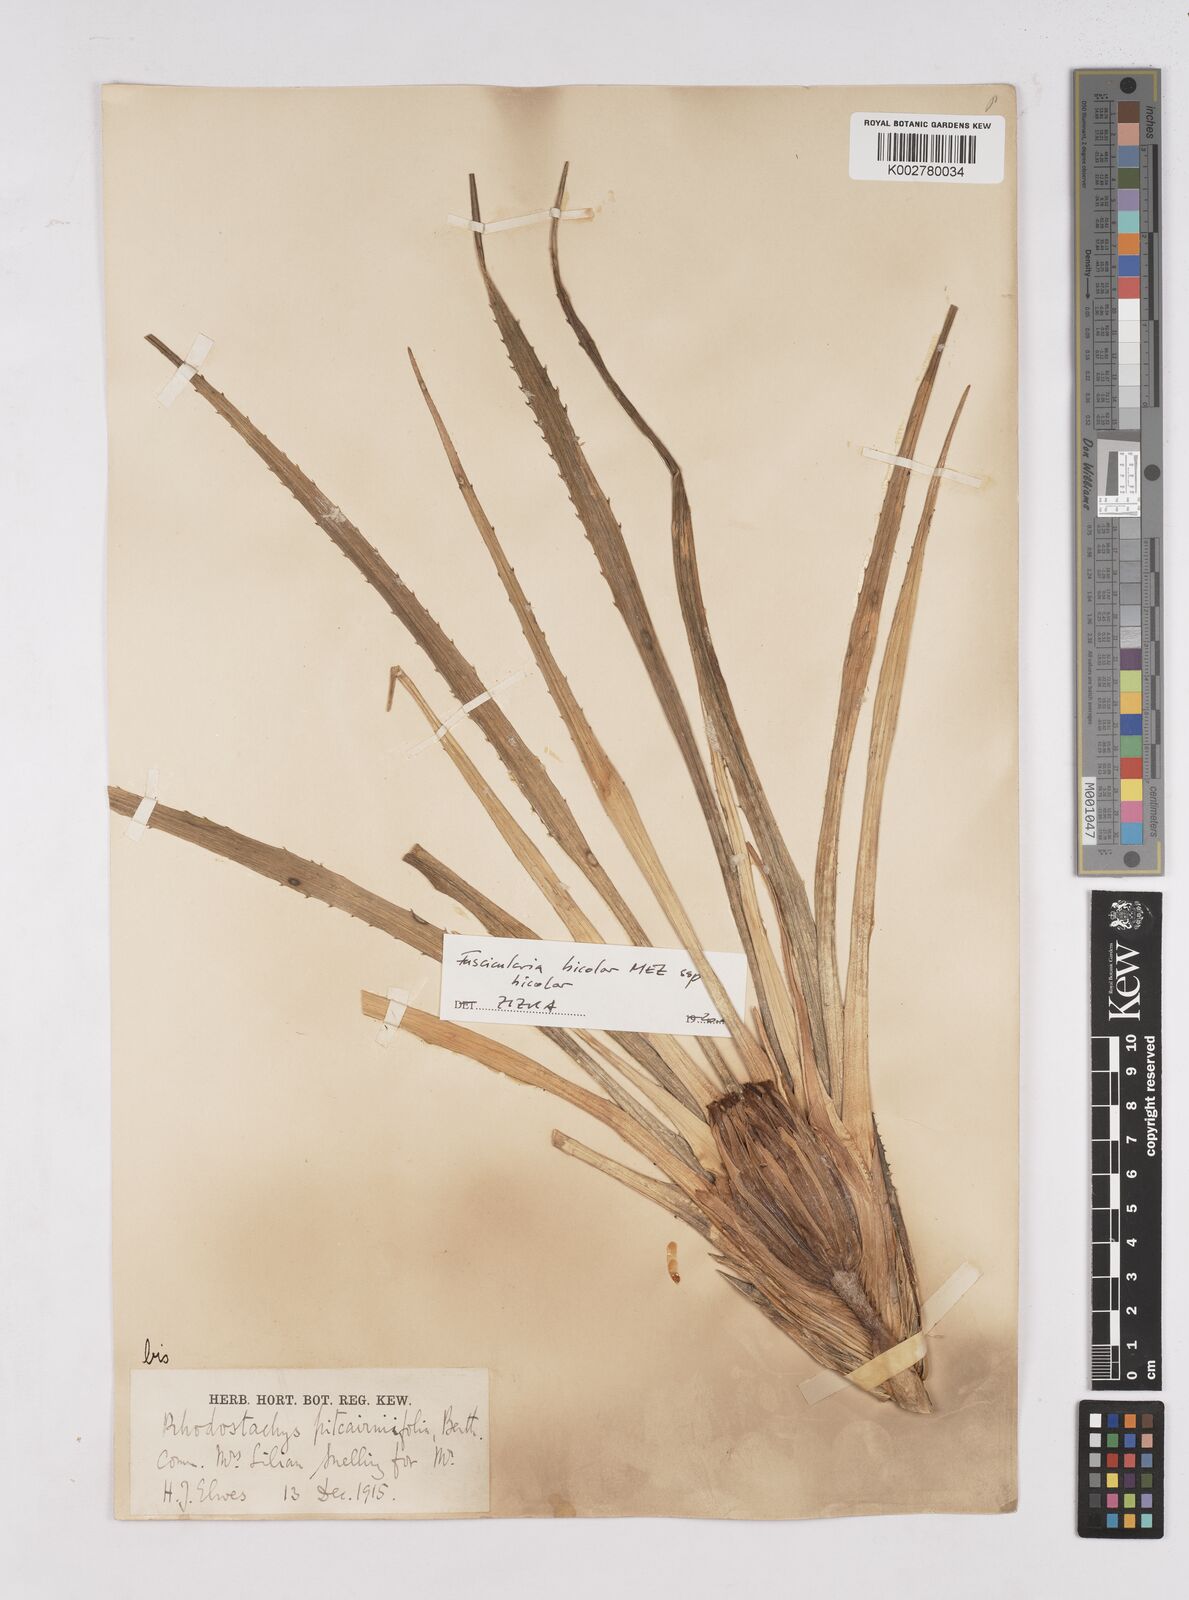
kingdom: Plantae
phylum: Tracheophyta
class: Liliopsida
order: Poales
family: Bromeliaceae
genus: Hechtia
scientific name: Hechtia pitcairniifolia
